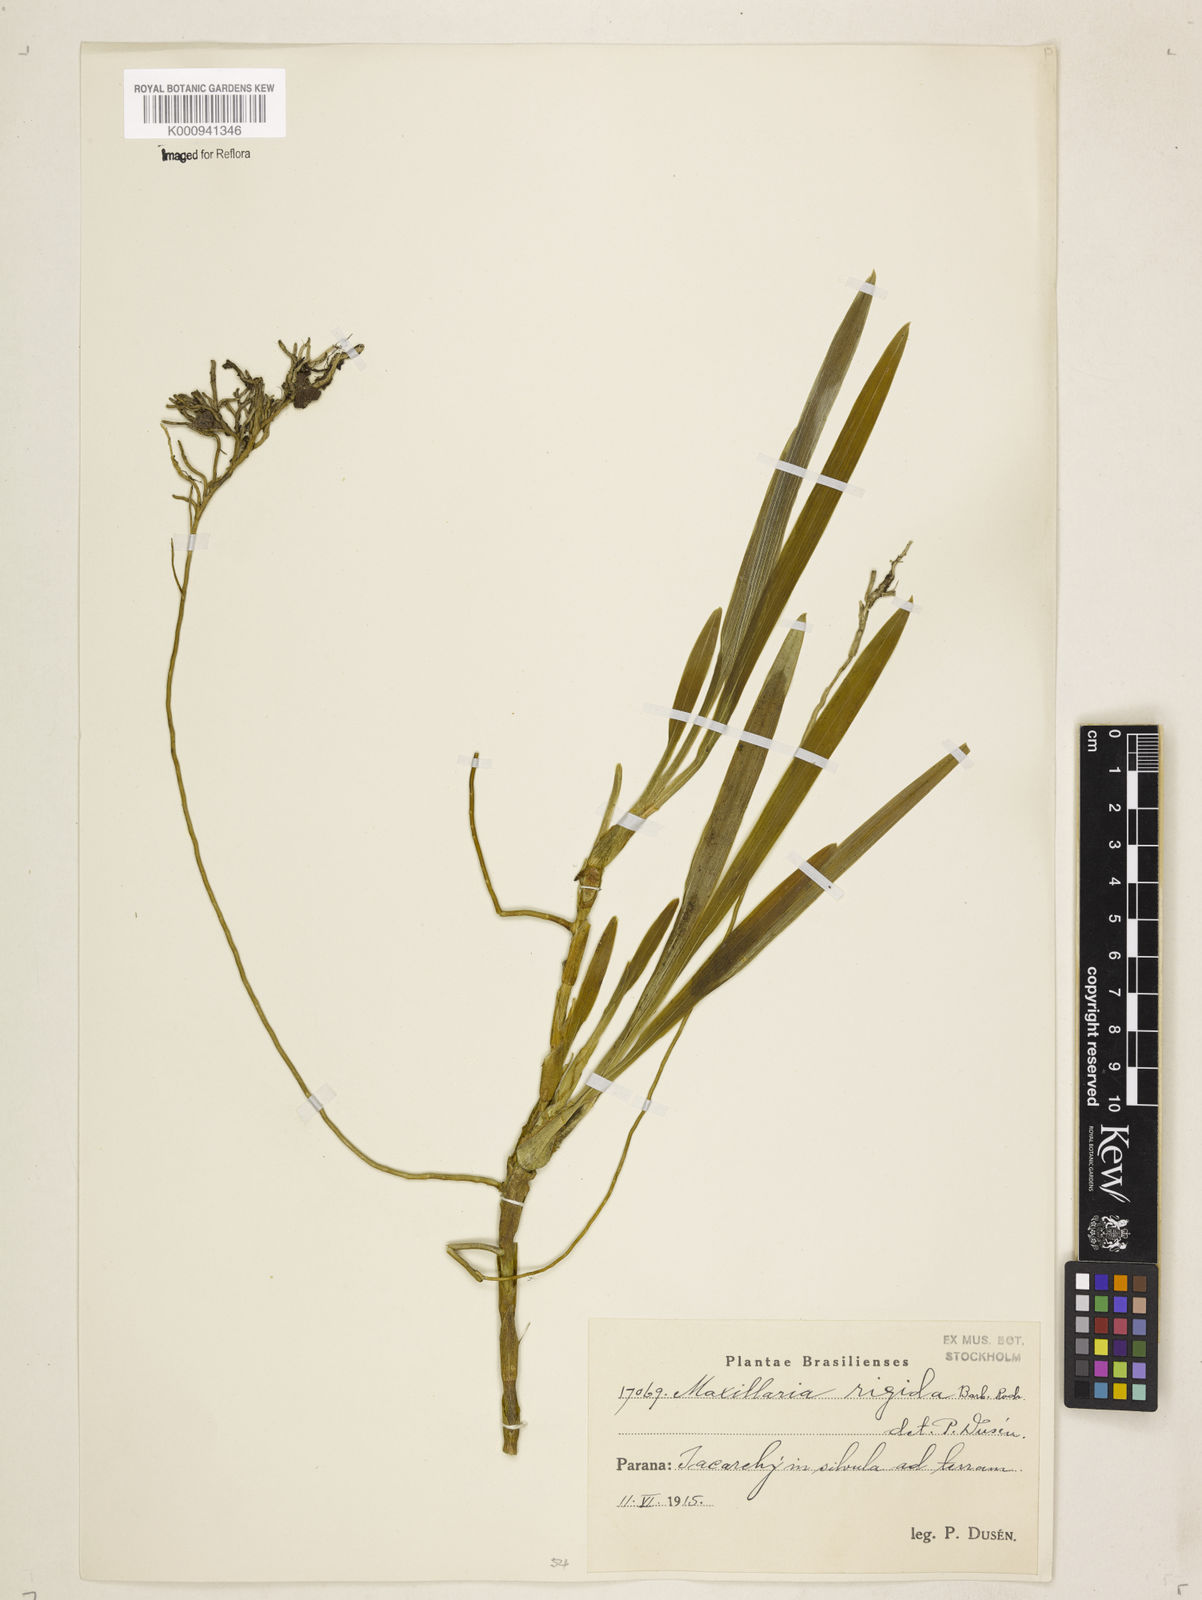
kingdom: Plantae
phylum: Tracheophyta
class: Liliopsida
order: Asparagales
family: Orchidaceae
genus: Maxillaria
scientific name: Maxillaria rigida
